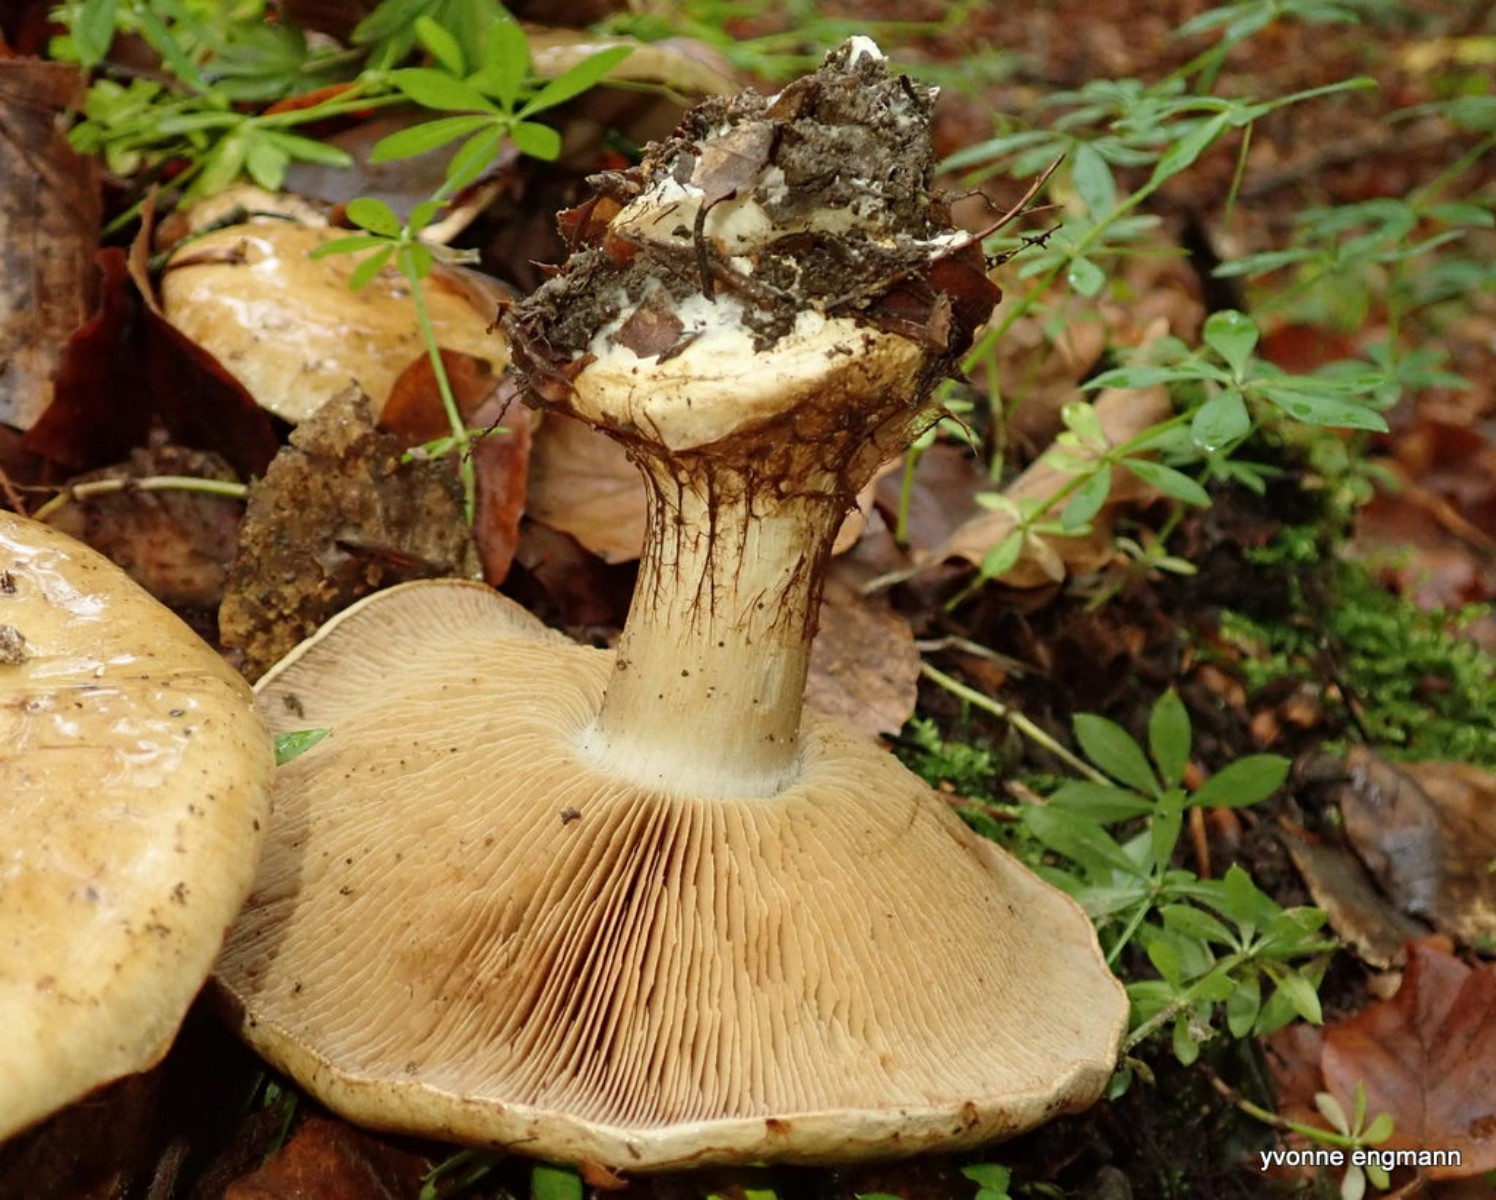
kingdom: Fungi
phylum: Basidiomycota
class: Agaricomycetes
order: Agaricales
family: Cortinariaceae
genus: Cortinarius
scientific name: Cortinarius anserinus
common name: bøge-slørhat
